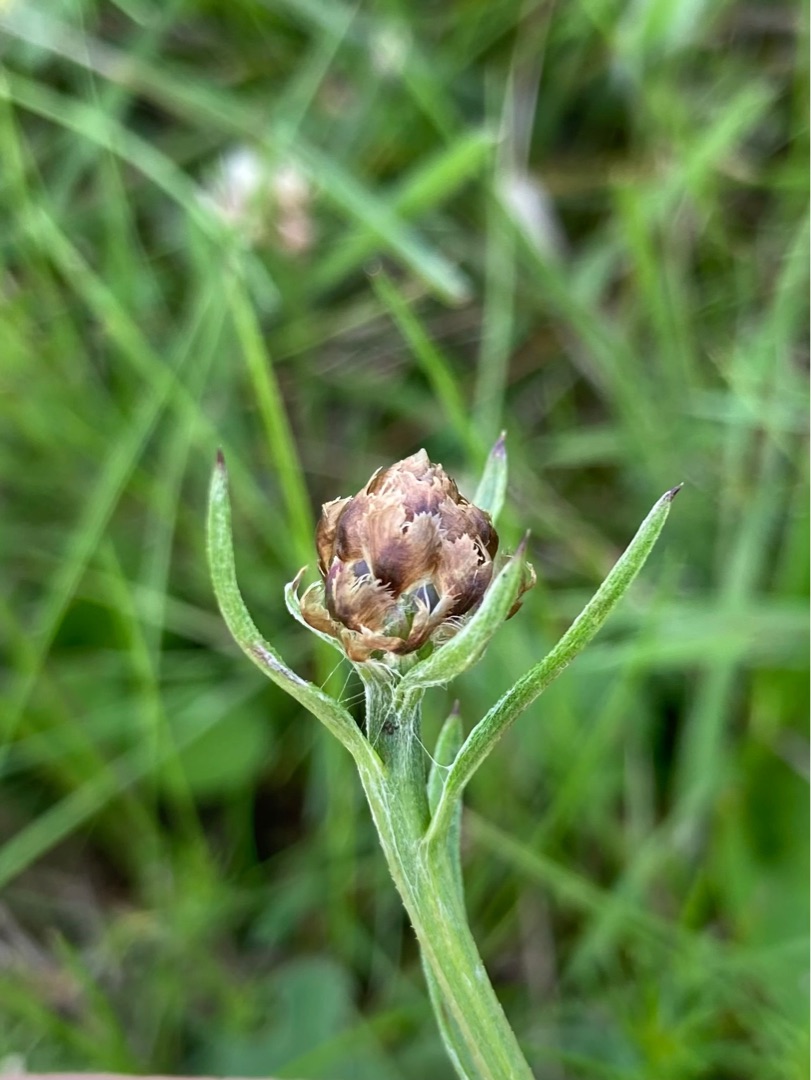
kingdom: Plantae
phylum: Tracheophyta
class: Magnoliopsida
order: Asterales
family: Asteraceae
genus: Centaurea
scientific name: Centaurea jacea
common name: Almindelig knopurt
